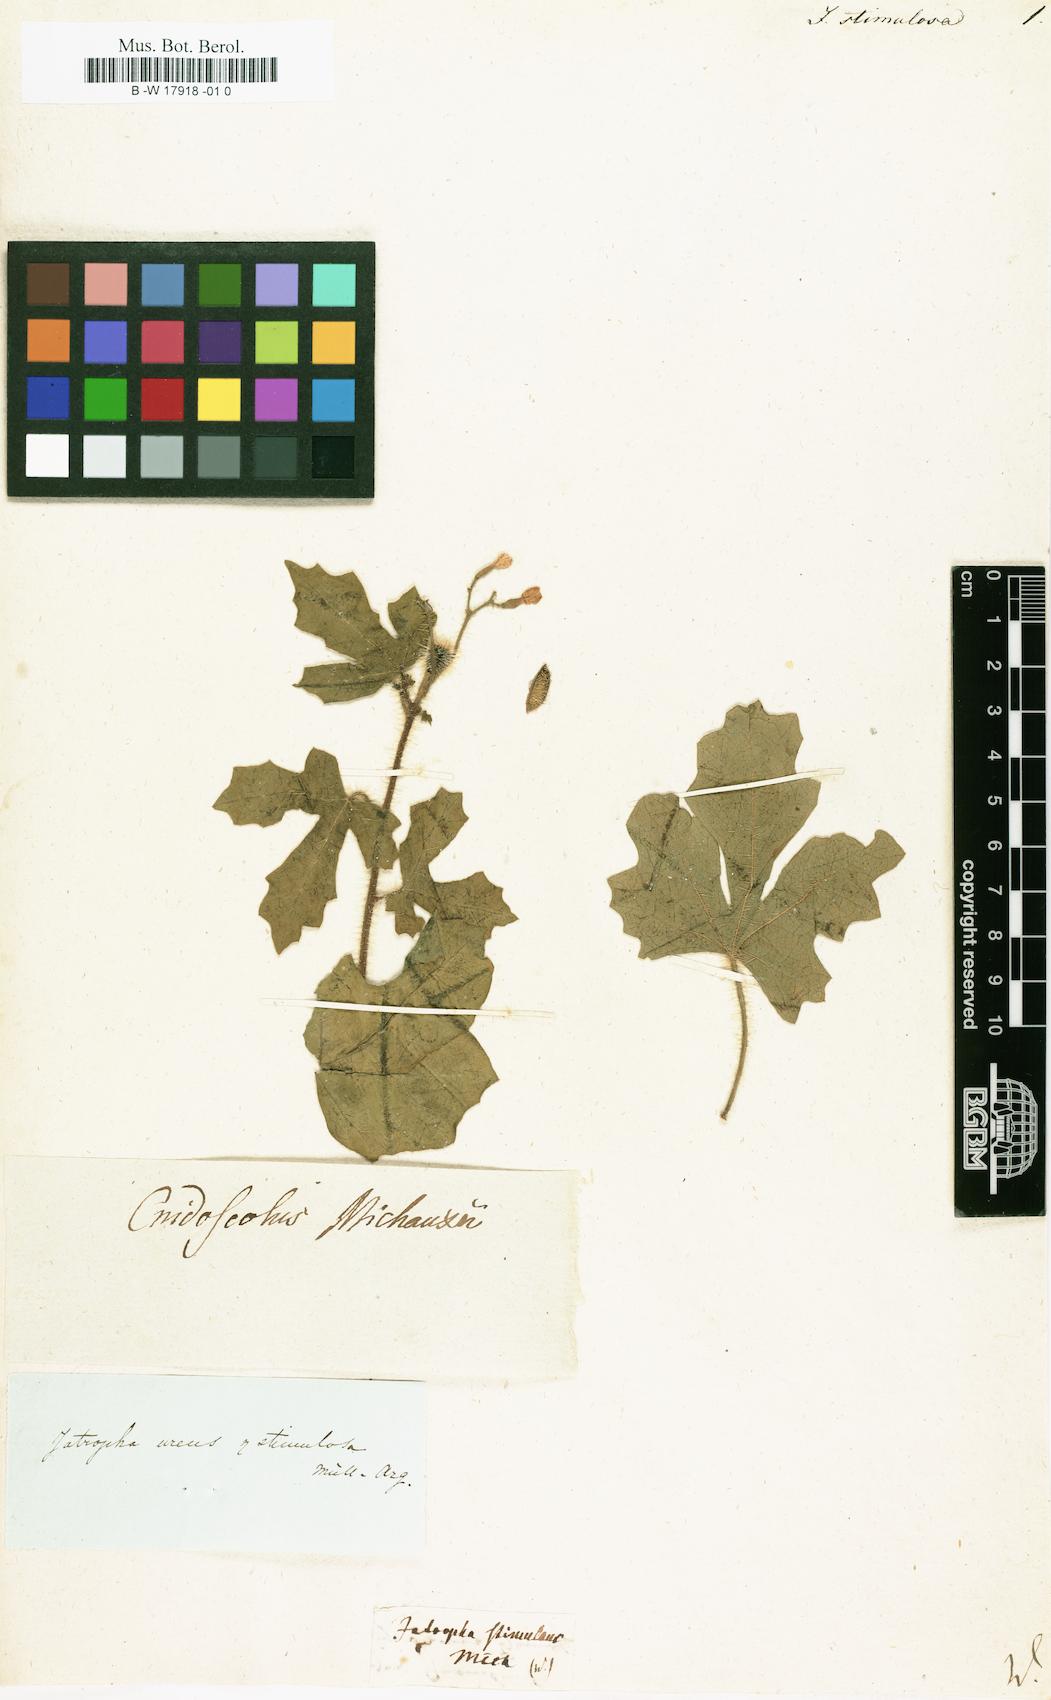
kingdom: Plantae
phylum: Tracheophyta
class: Magnoliopsida
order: Malpighiales
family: Euphorbiaceae
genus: Jatropha
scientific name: Jatropha
